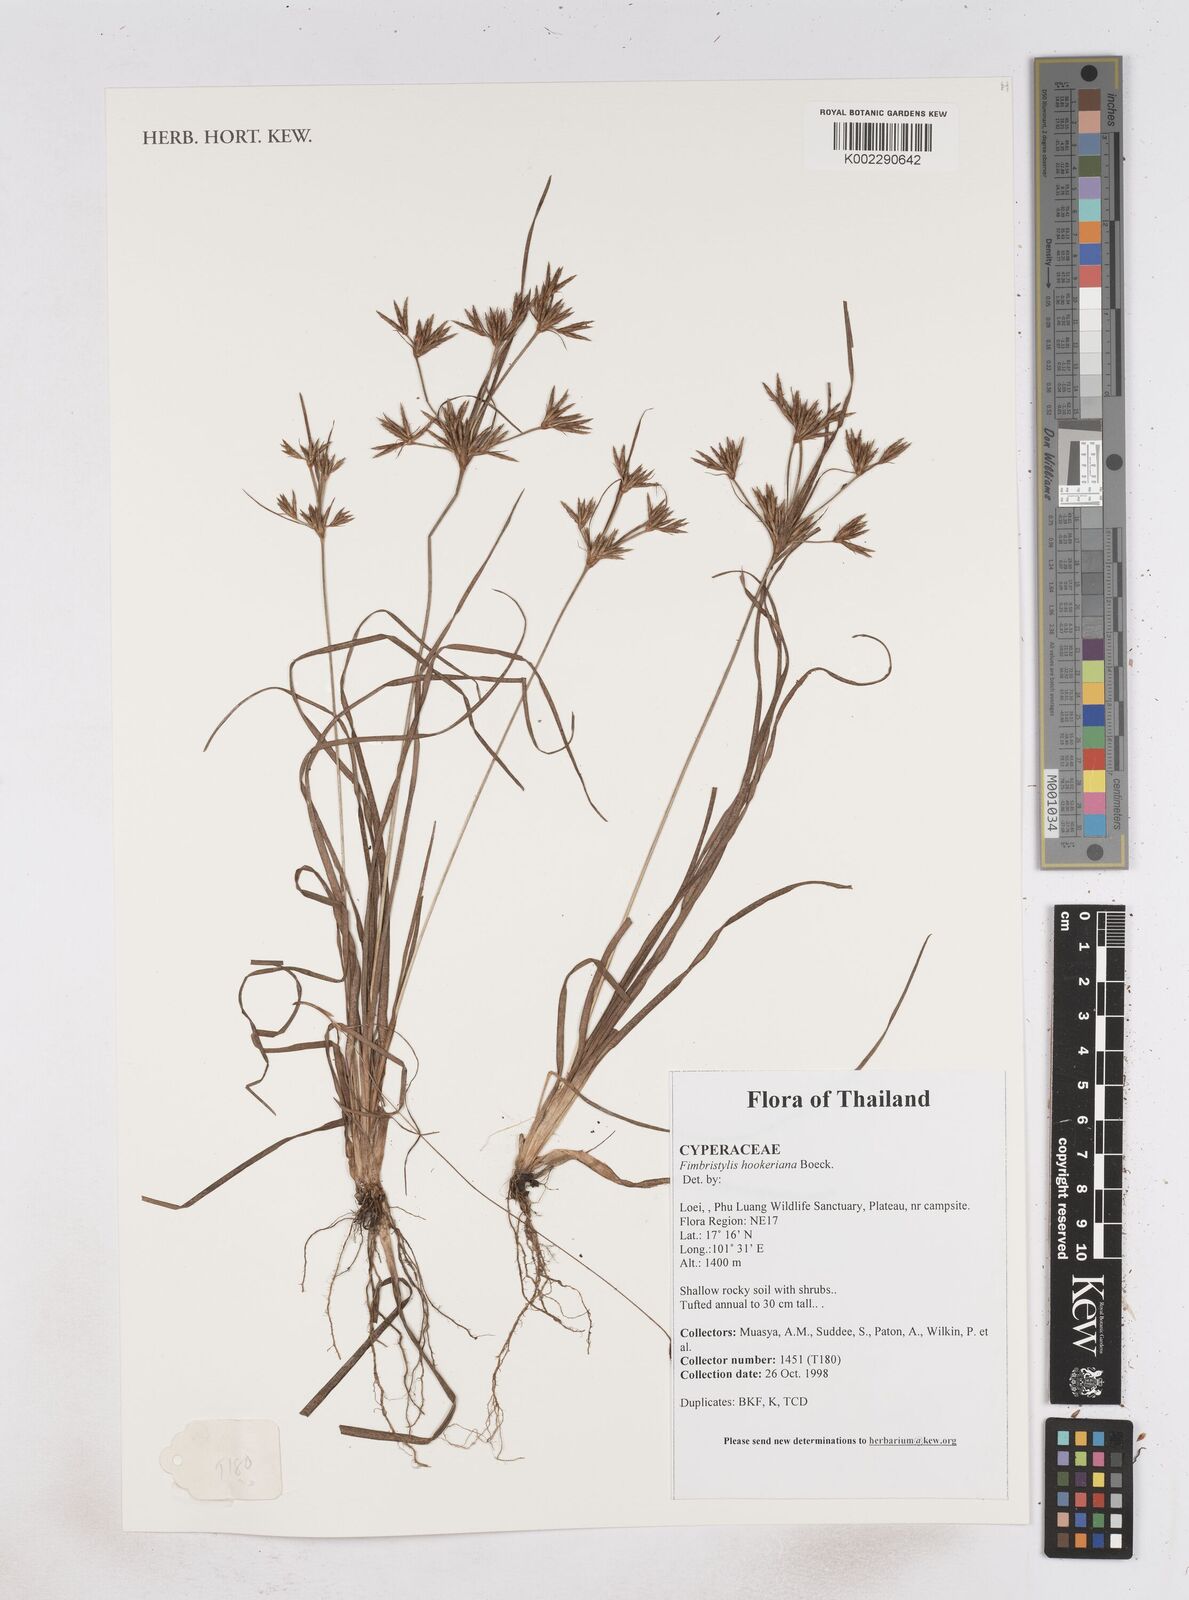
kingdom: Plantae
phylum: Tracheophyta
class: Liliopsida
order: Poales
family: Cyperaceae
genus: Fimbristylis
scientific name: Fimbristylis hookeriana
